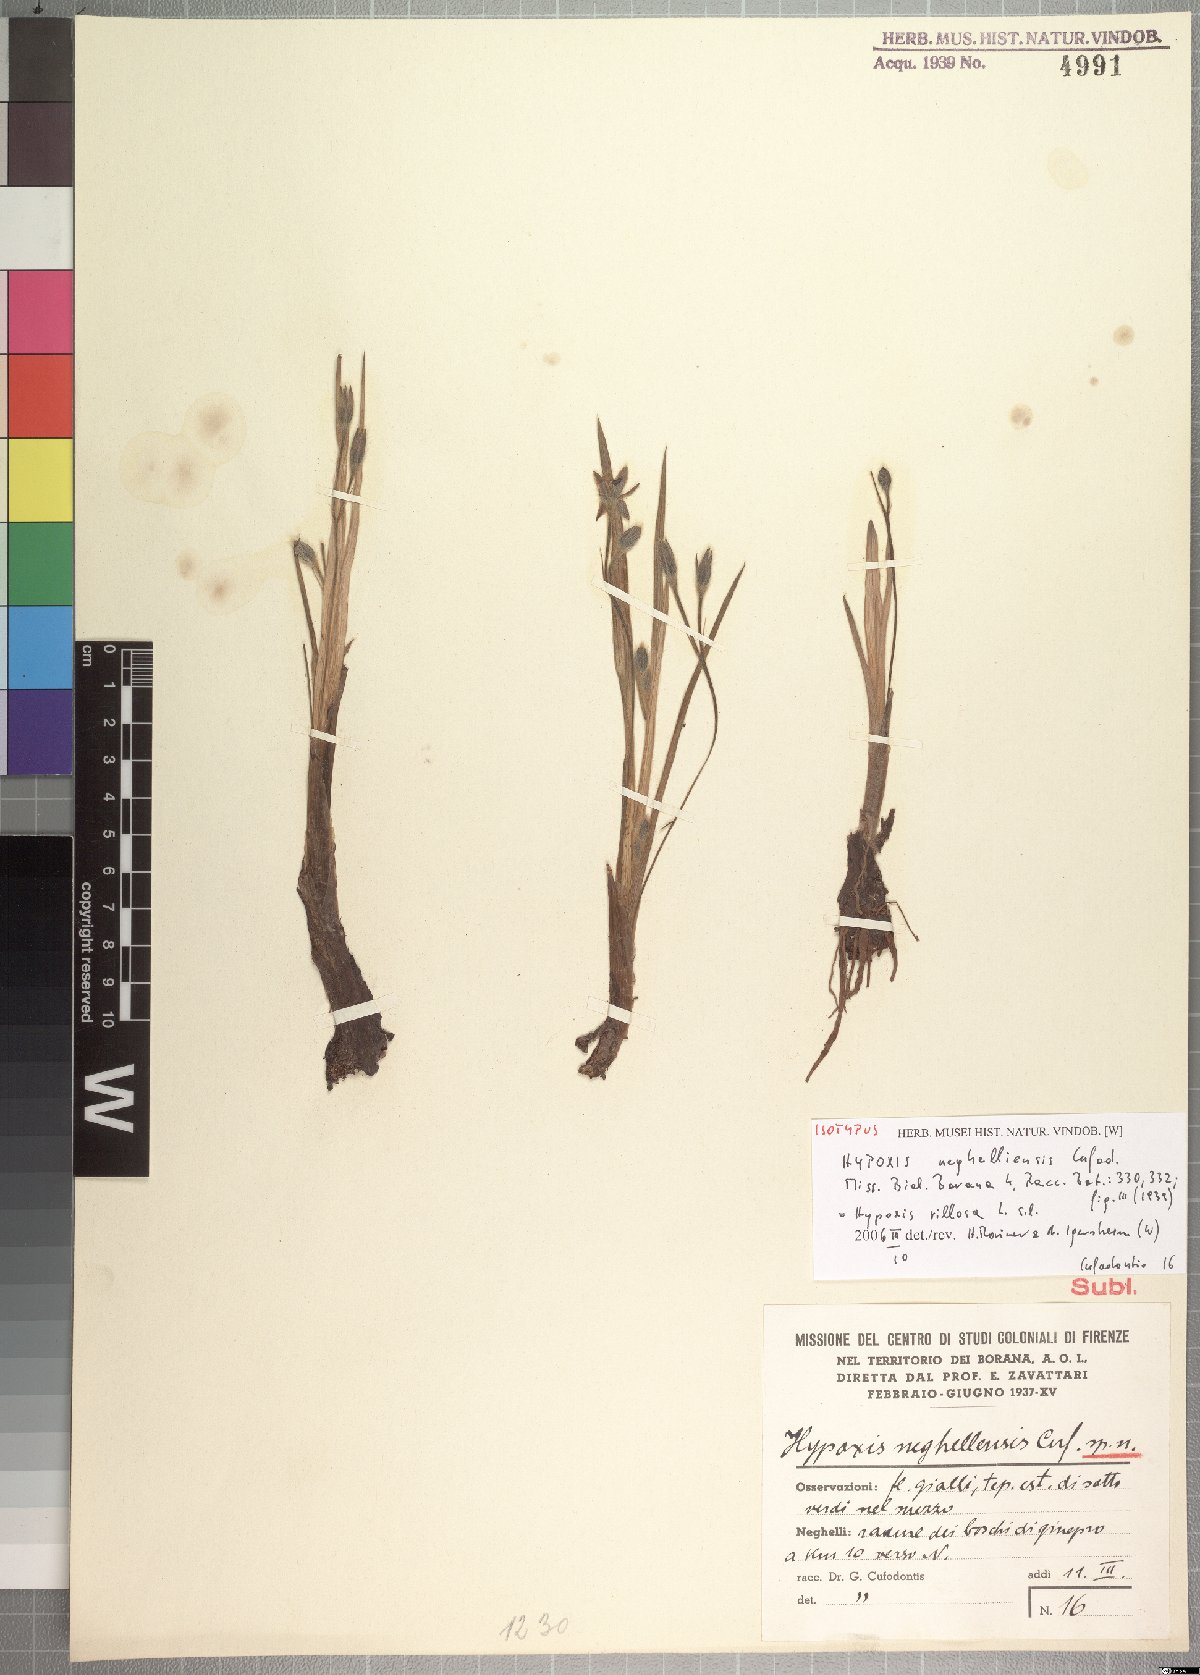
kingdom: Plantae
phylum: Tracheophyta
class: Liliopsida
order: Asparagales
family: Hypoxidaceae
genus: Hypoxis
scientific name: Hypoxis abyssinica
